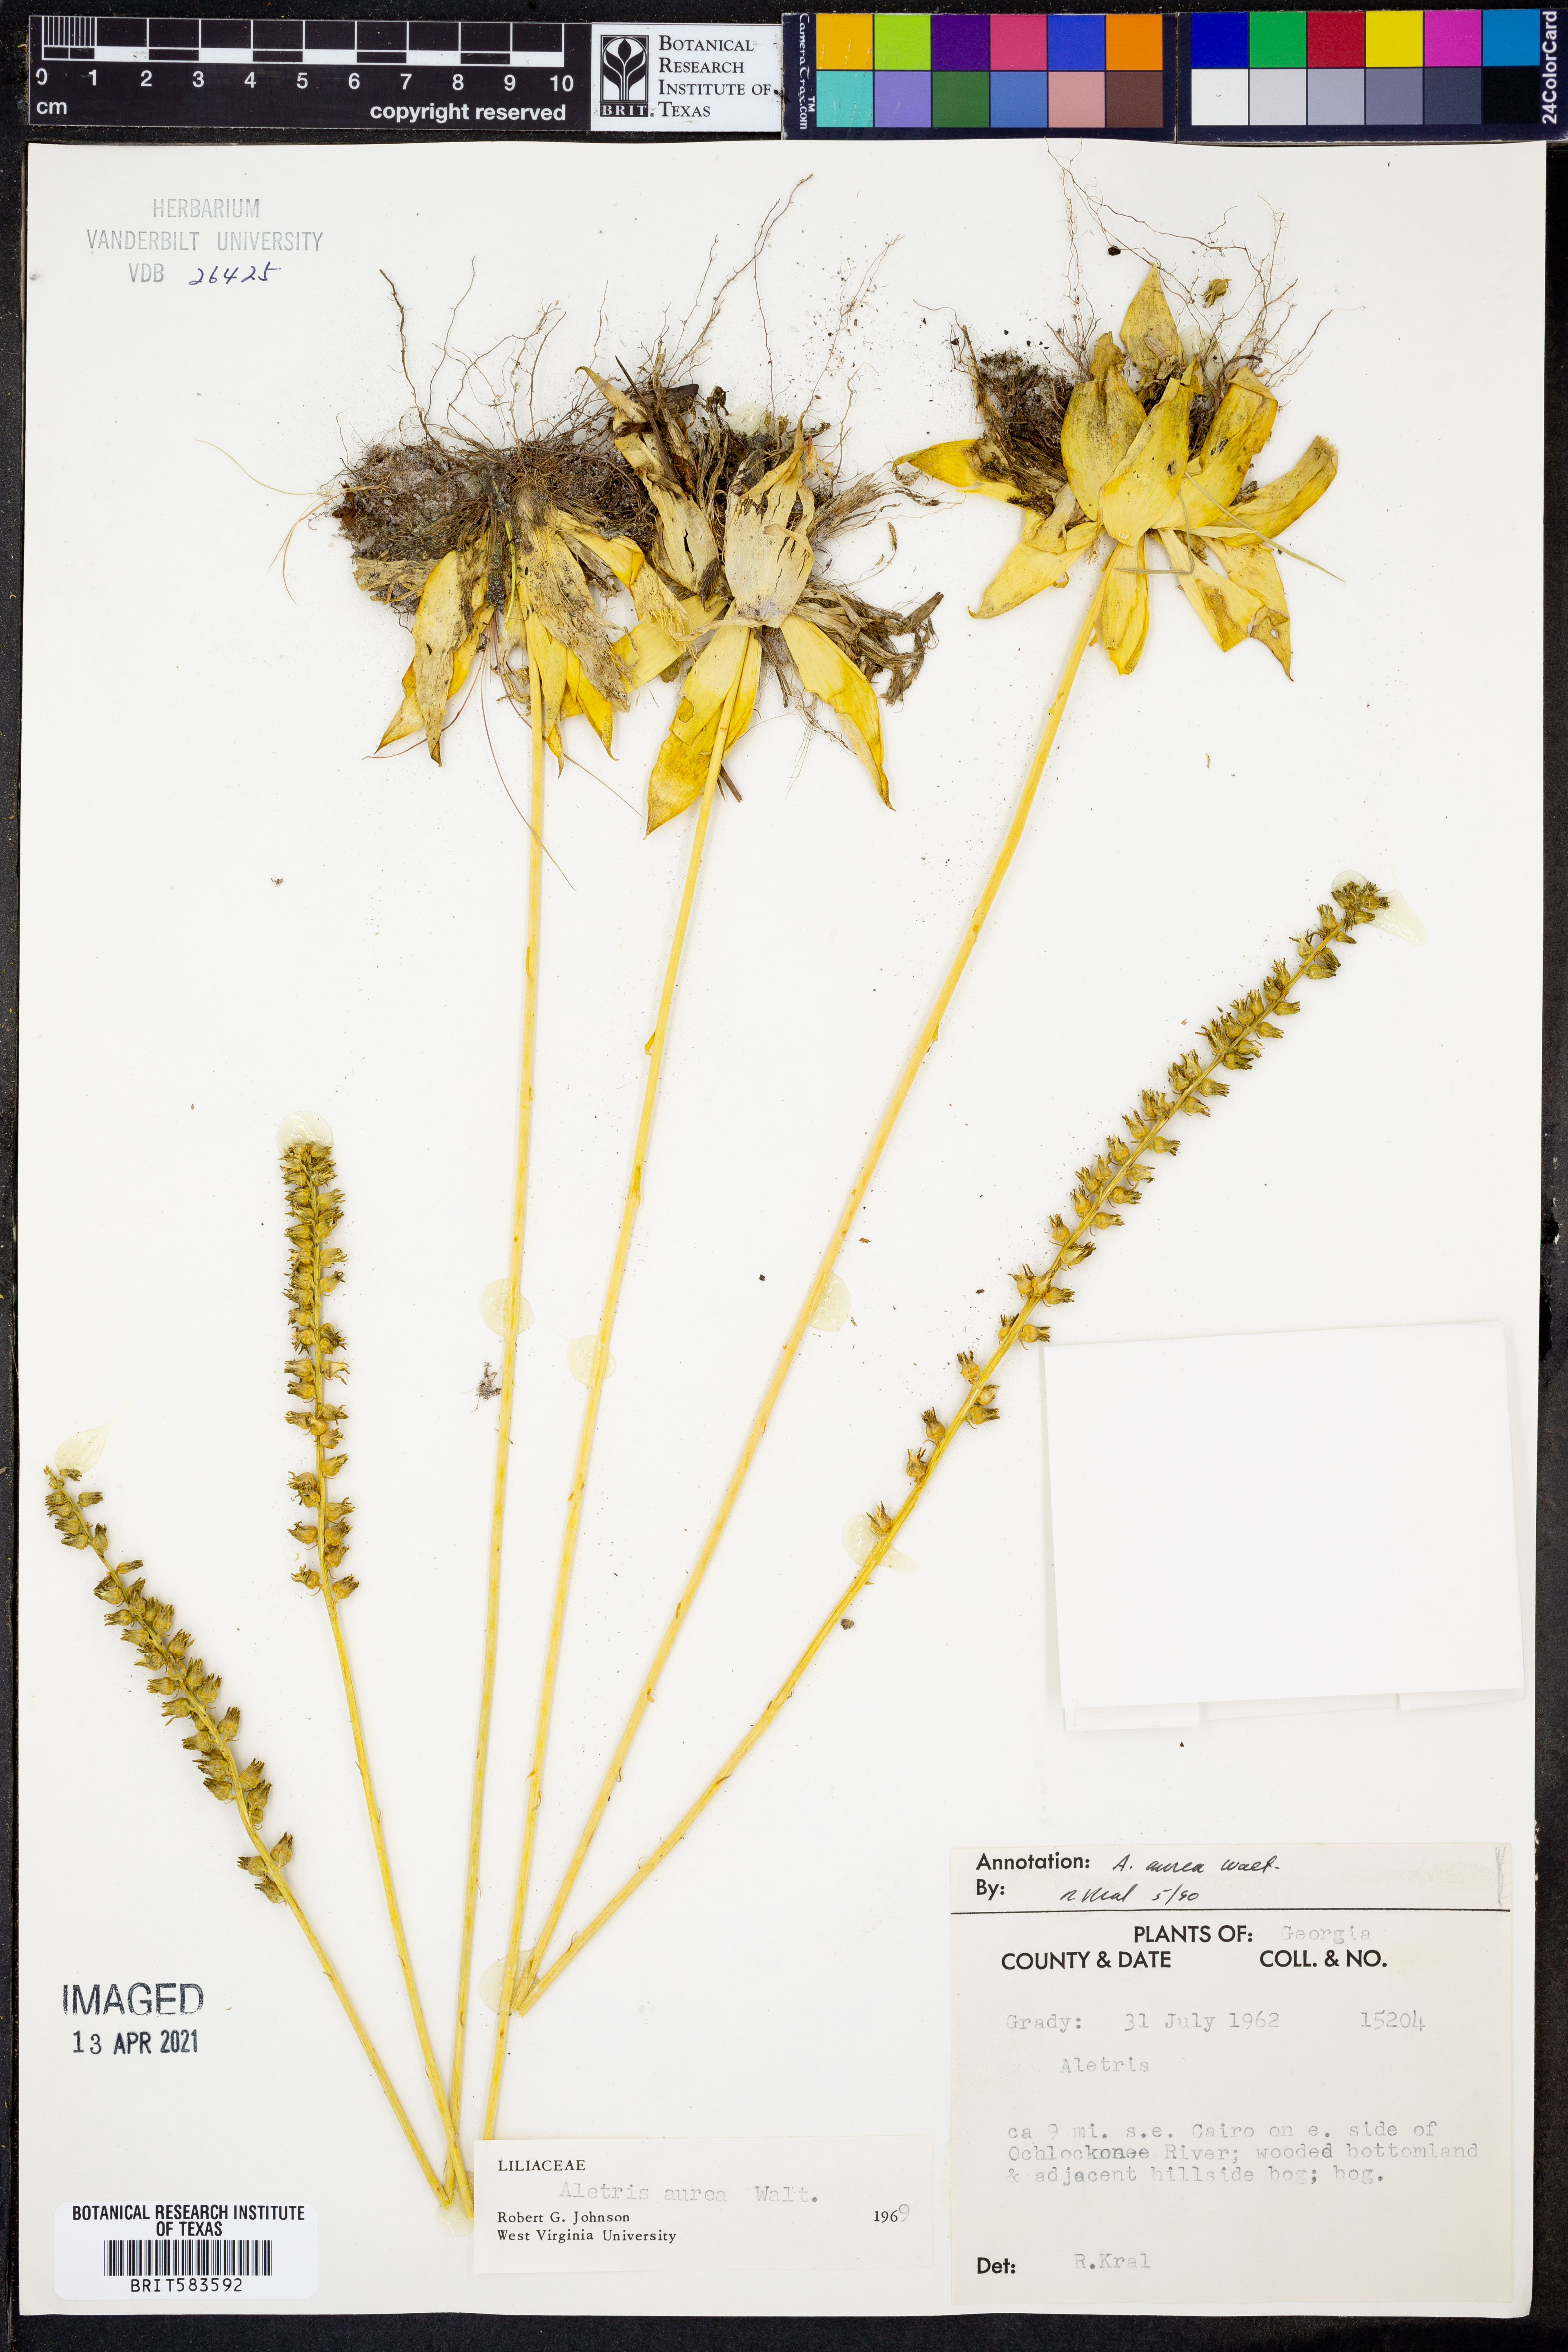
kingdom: Plantae
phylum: Tracheophyta
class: Liliopsida
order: Dioscoreales
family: Nartheciaceae
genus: Aletris
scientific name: Aletris aurea
